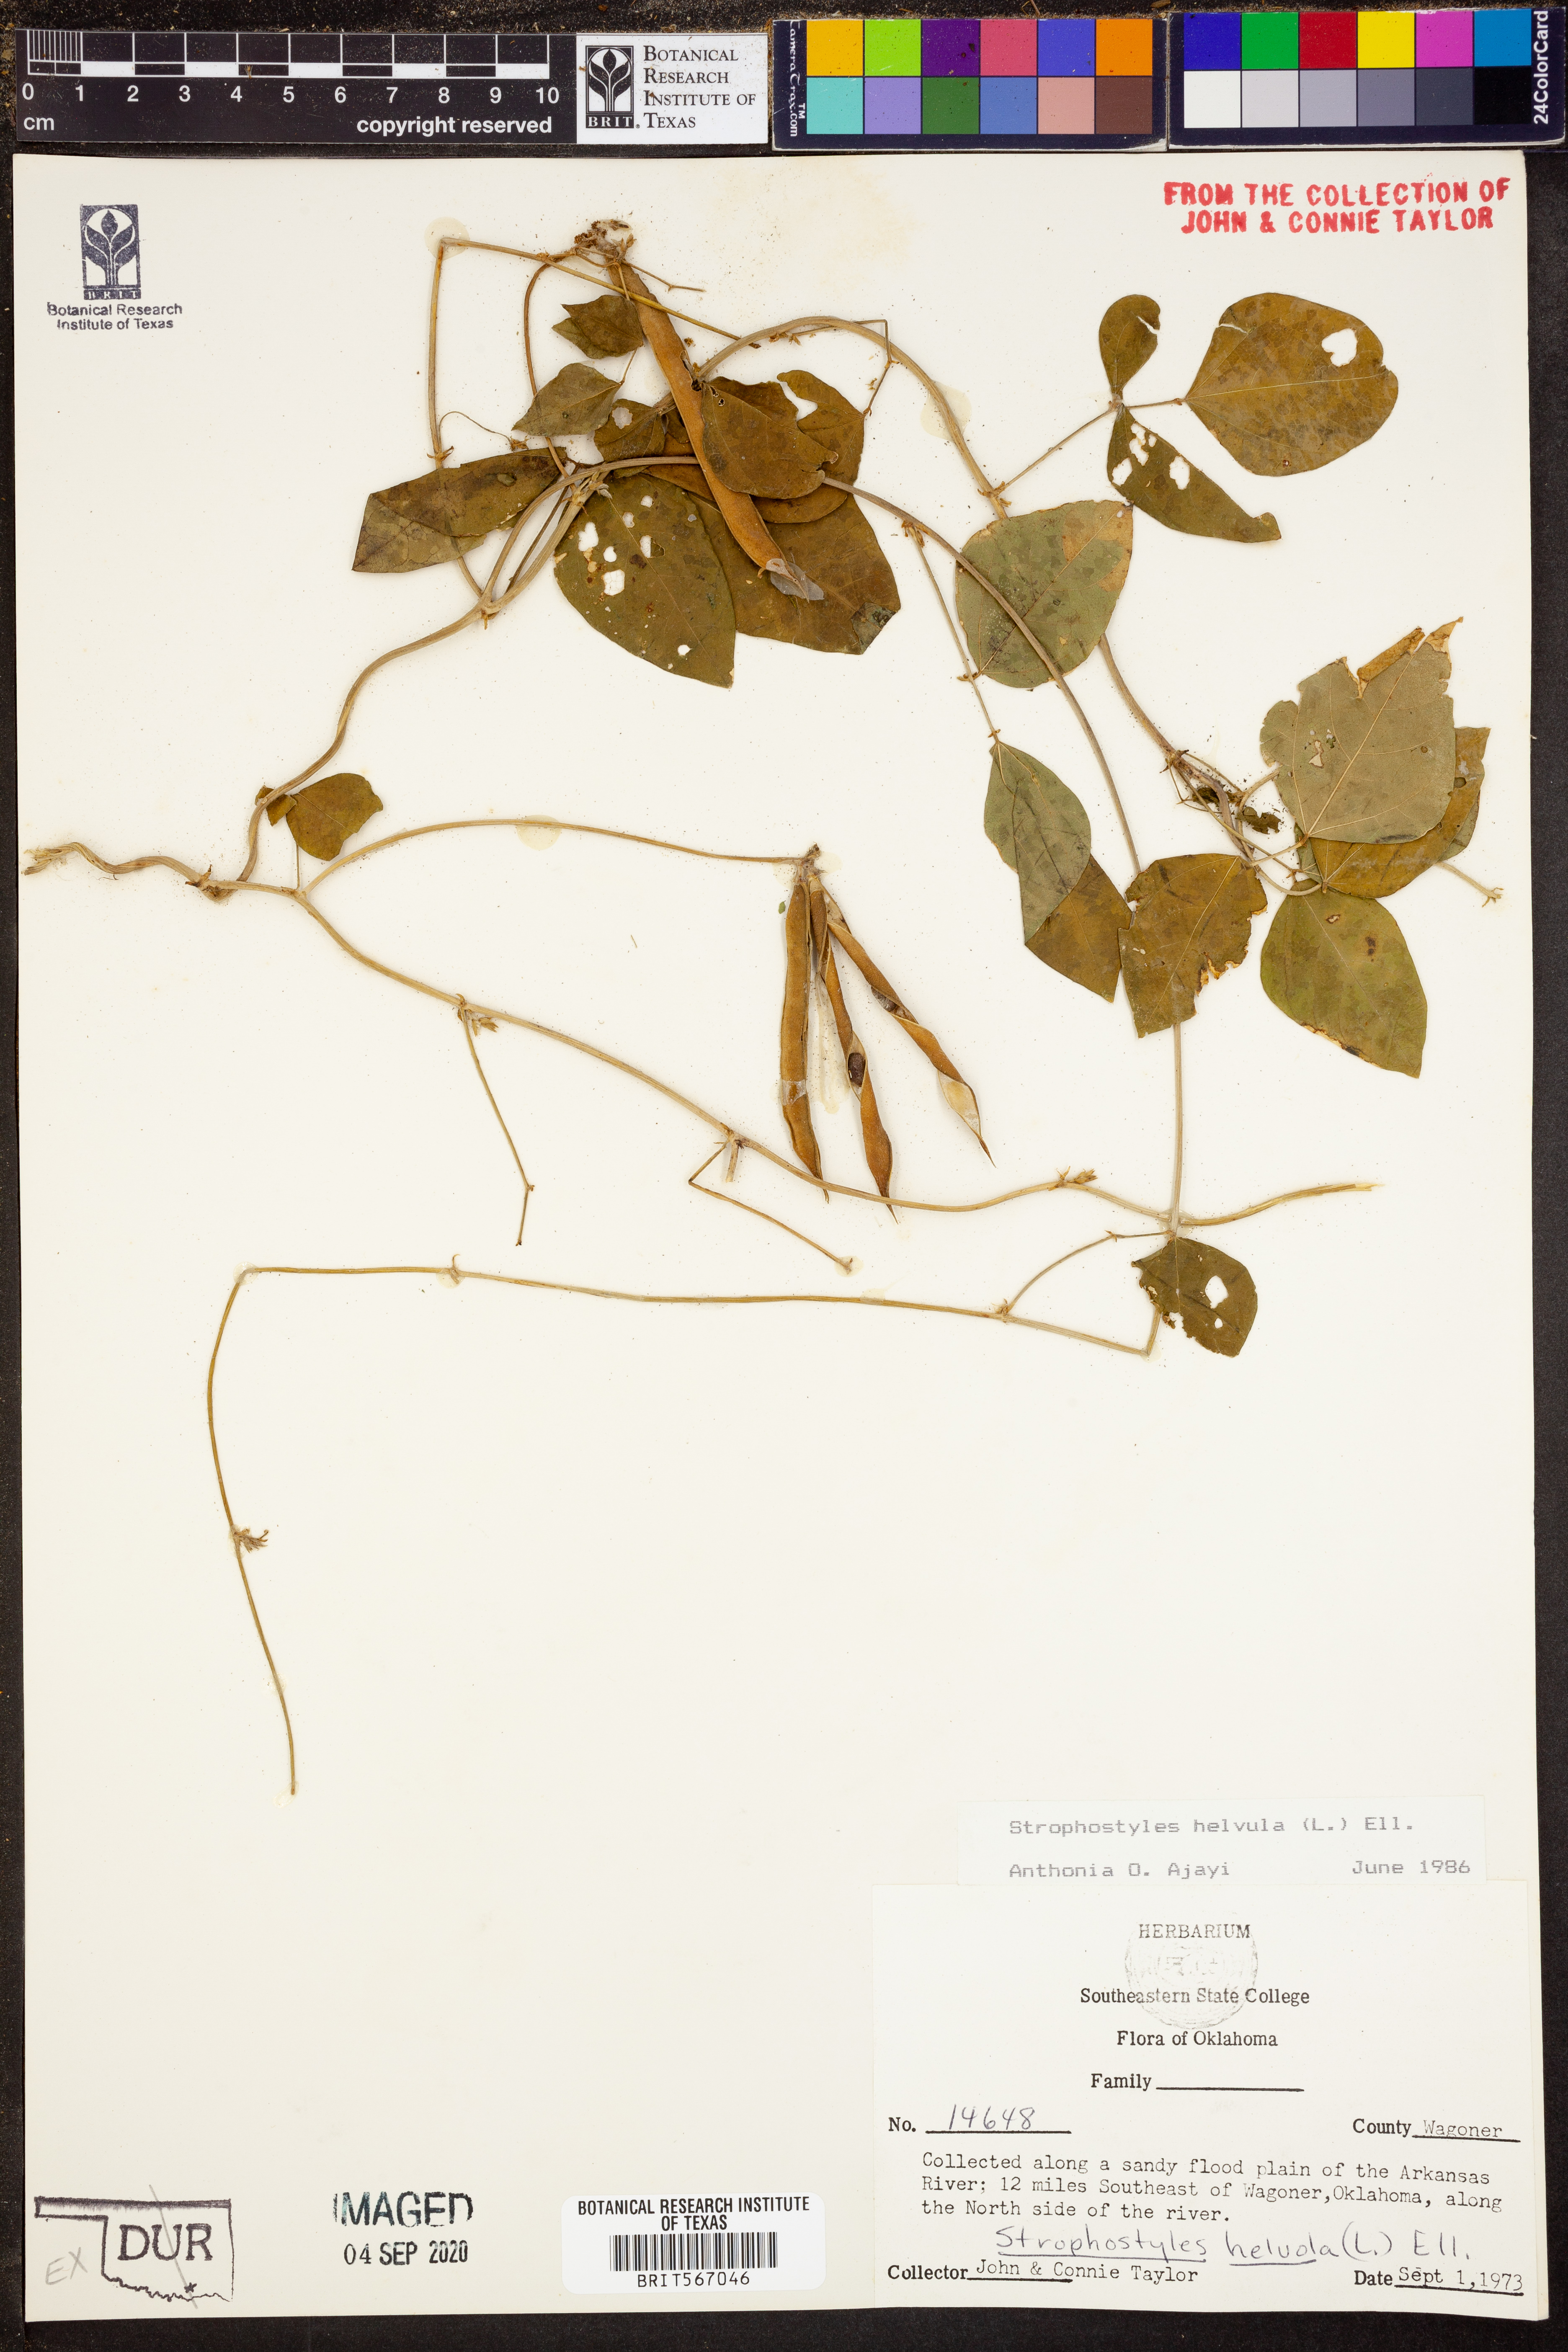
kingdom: Plantae
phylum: Tracheophyta
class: Magnoliopsida
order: Fabales
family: Fabaceae
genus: Strophostyles
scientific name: Strophostyles helvula
